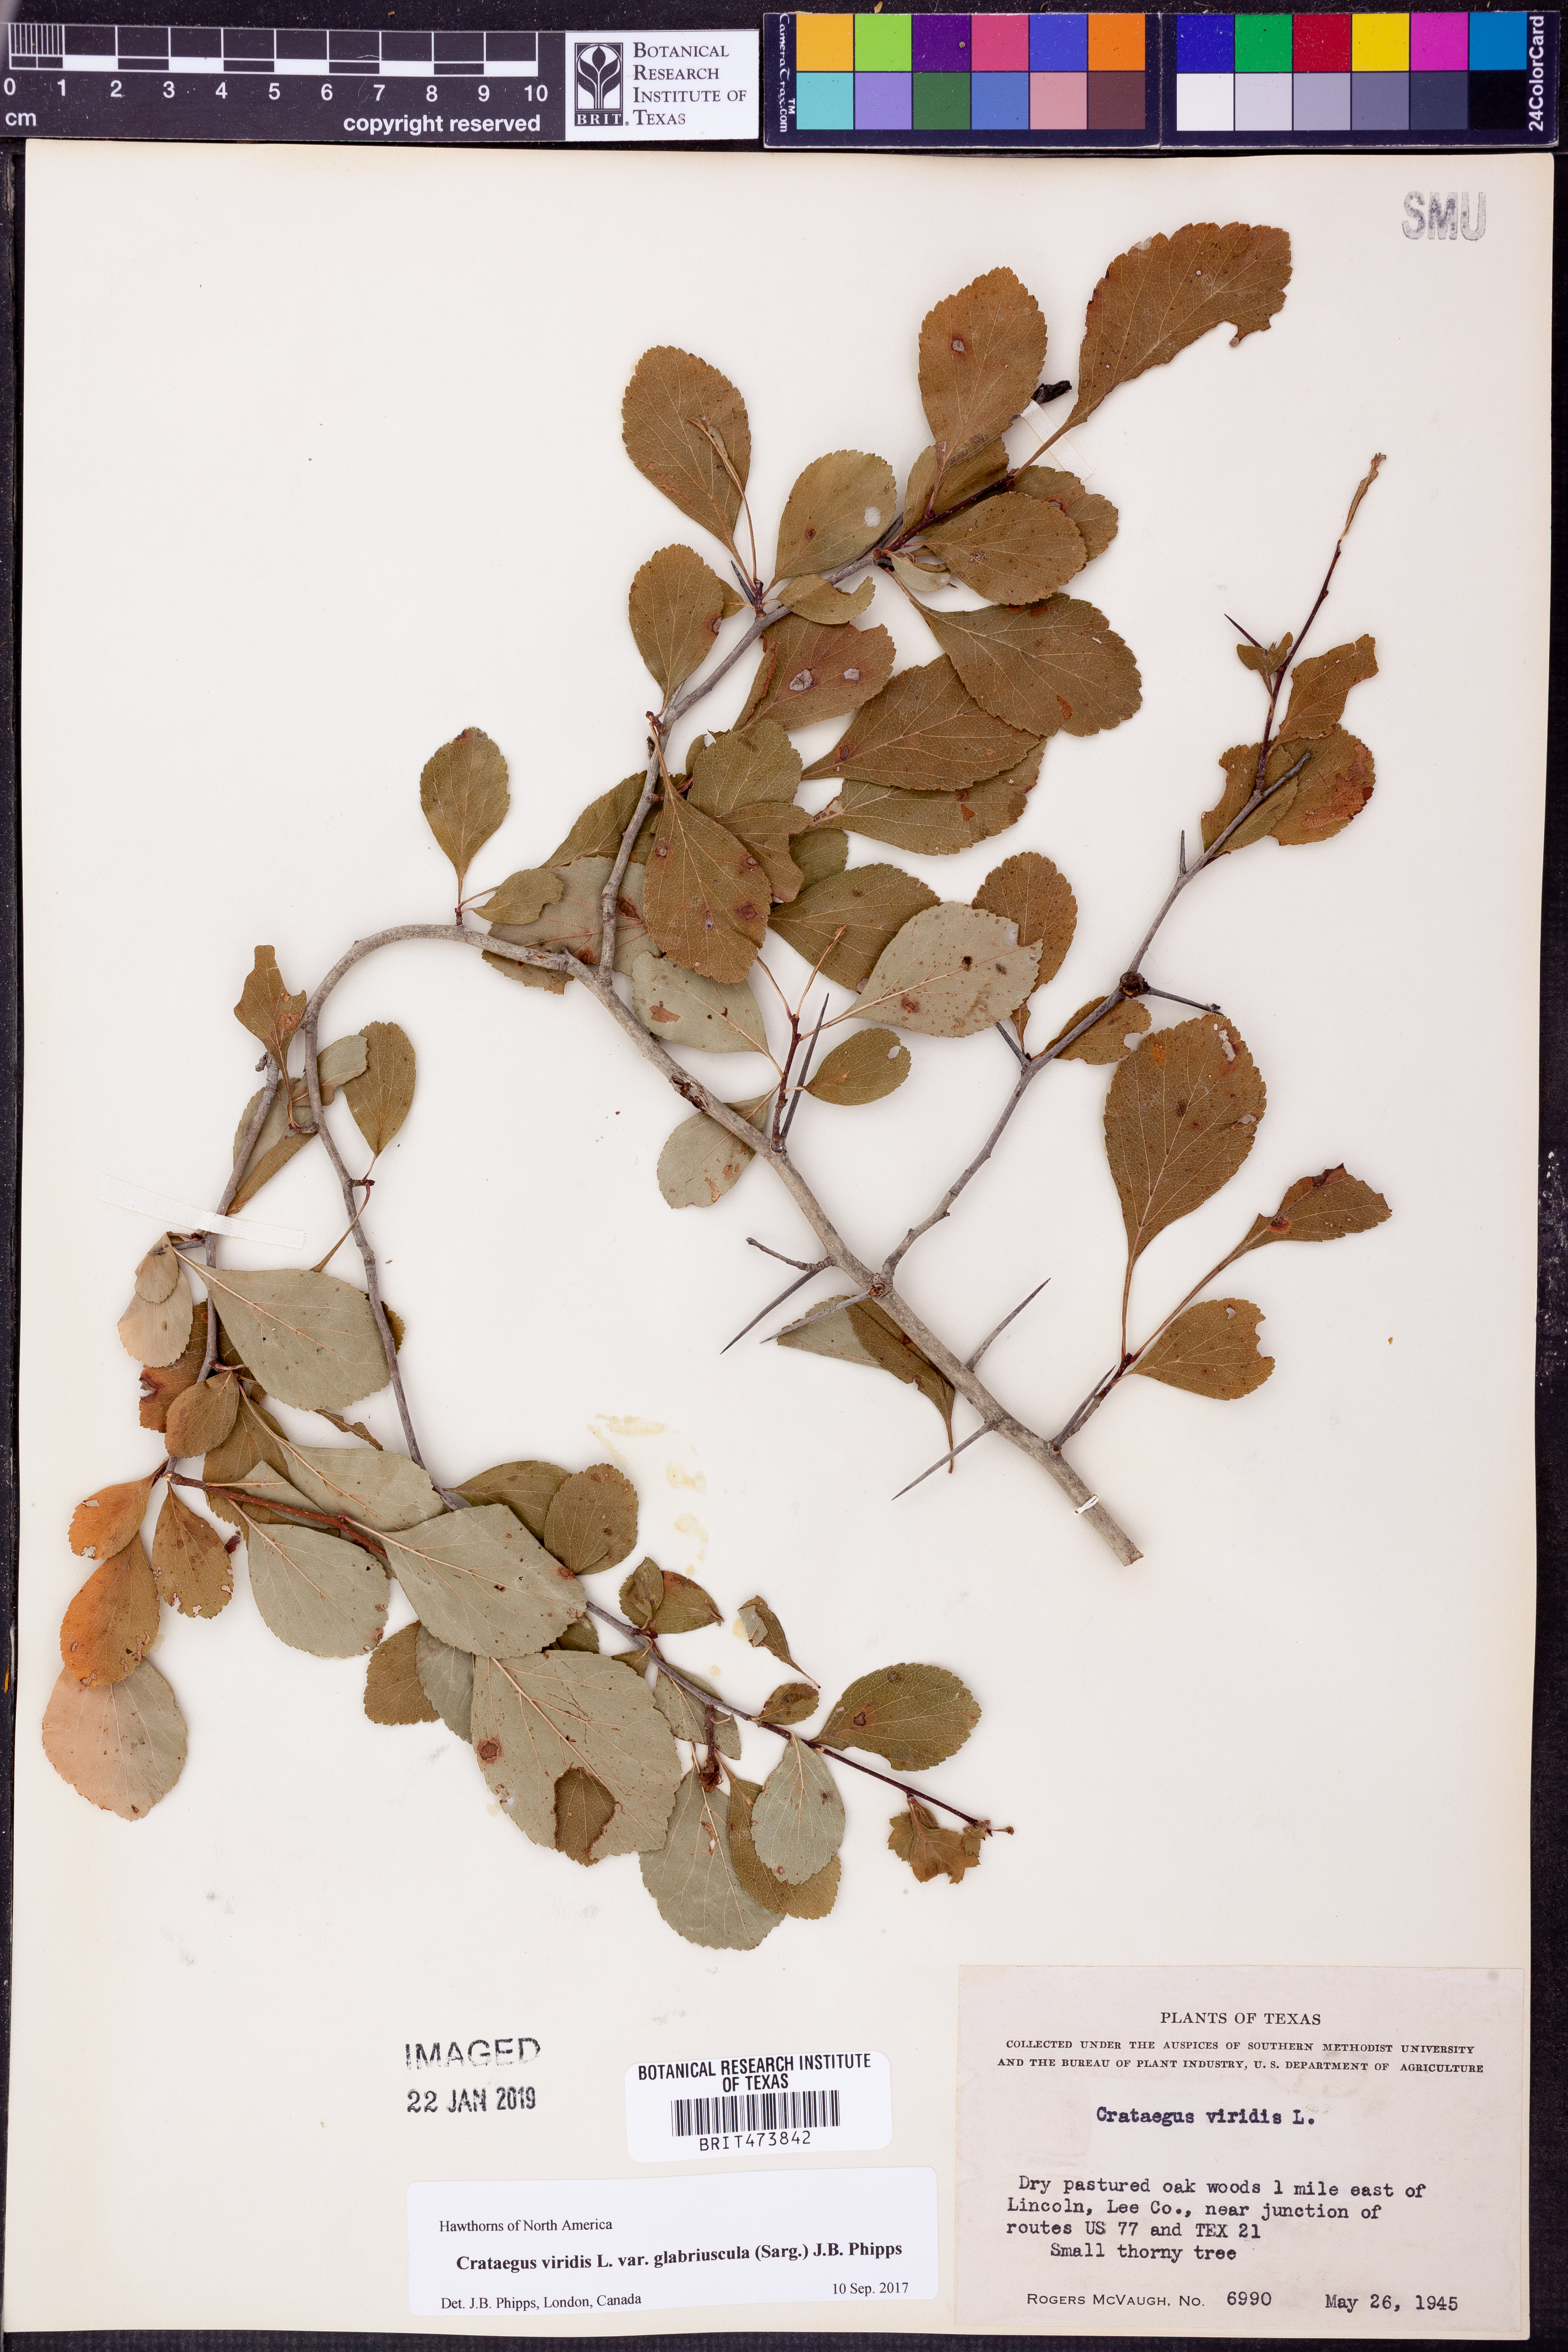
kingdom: Plantae
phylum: Tracheophyta
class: Magnoliopsida
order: Rosales
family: Rosaceae
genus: Crataegus
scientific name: Crataegus viridis
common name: Southernthorn
